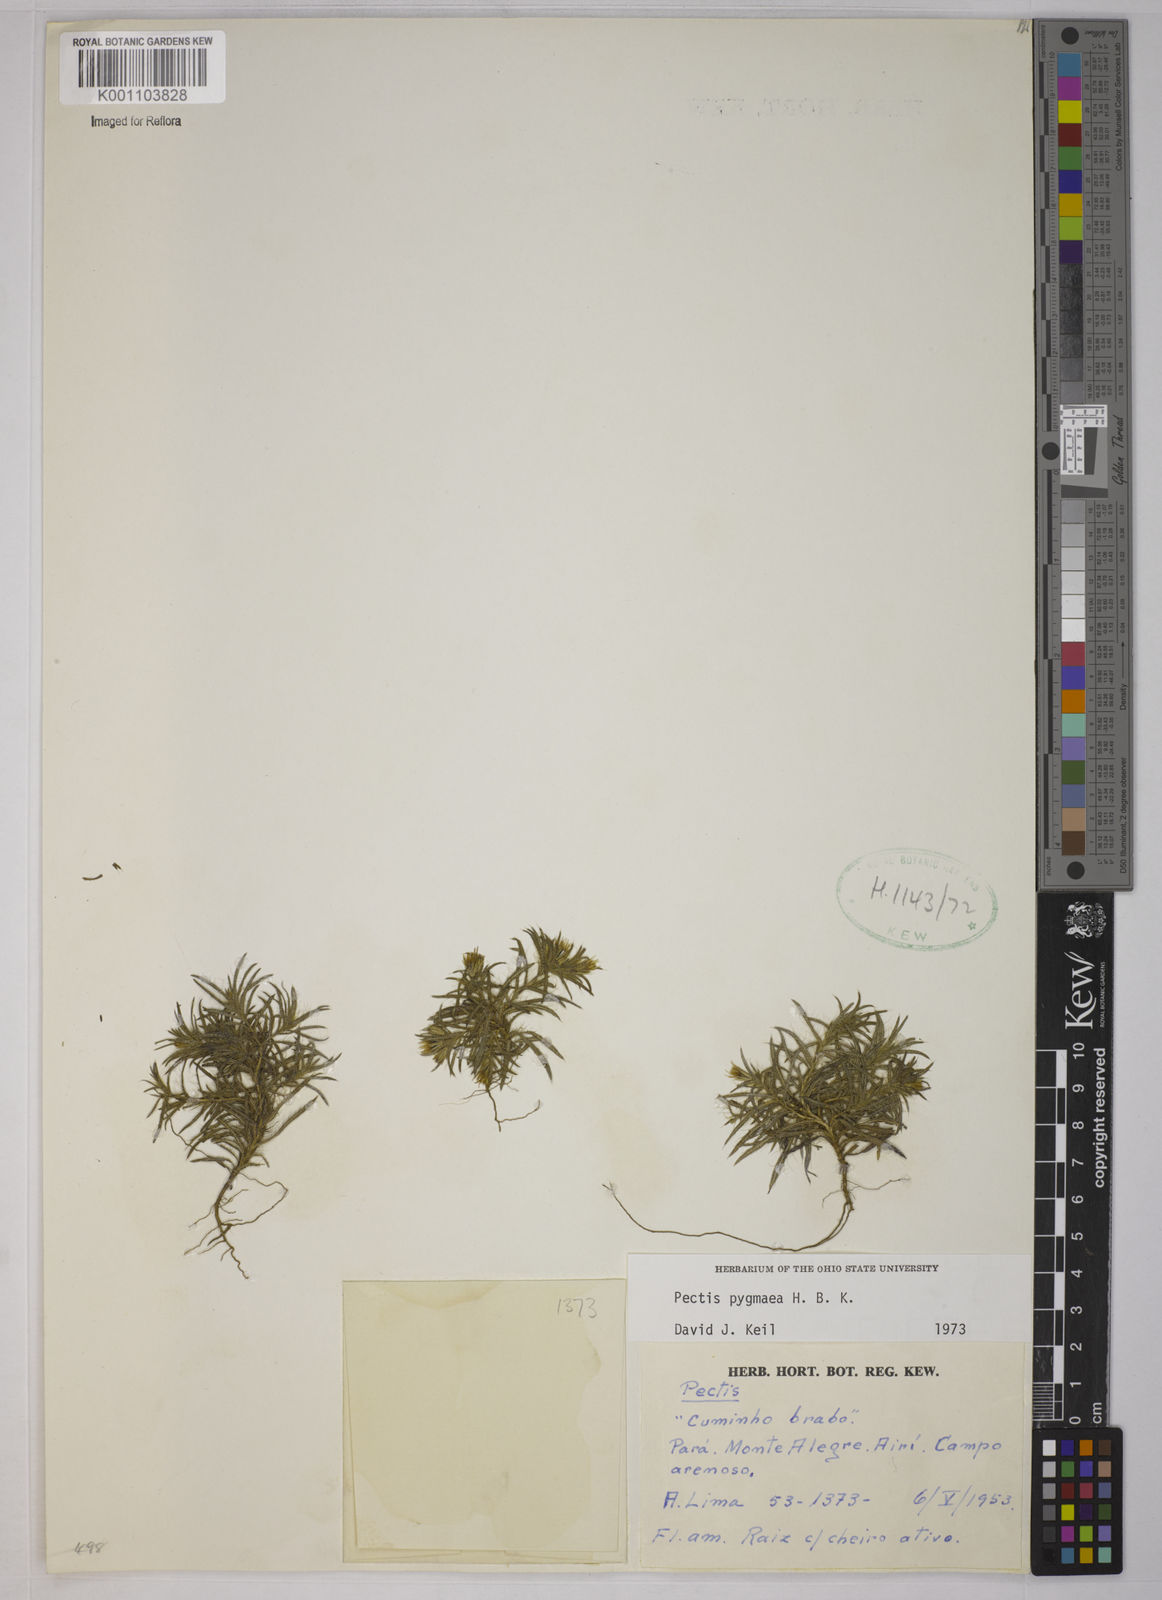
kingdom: Plantae
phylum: Tracheophyta
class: Magnoliopsida
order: Asterales
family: Asteraceae
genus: Pectis
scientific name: Pectis pygmaea
